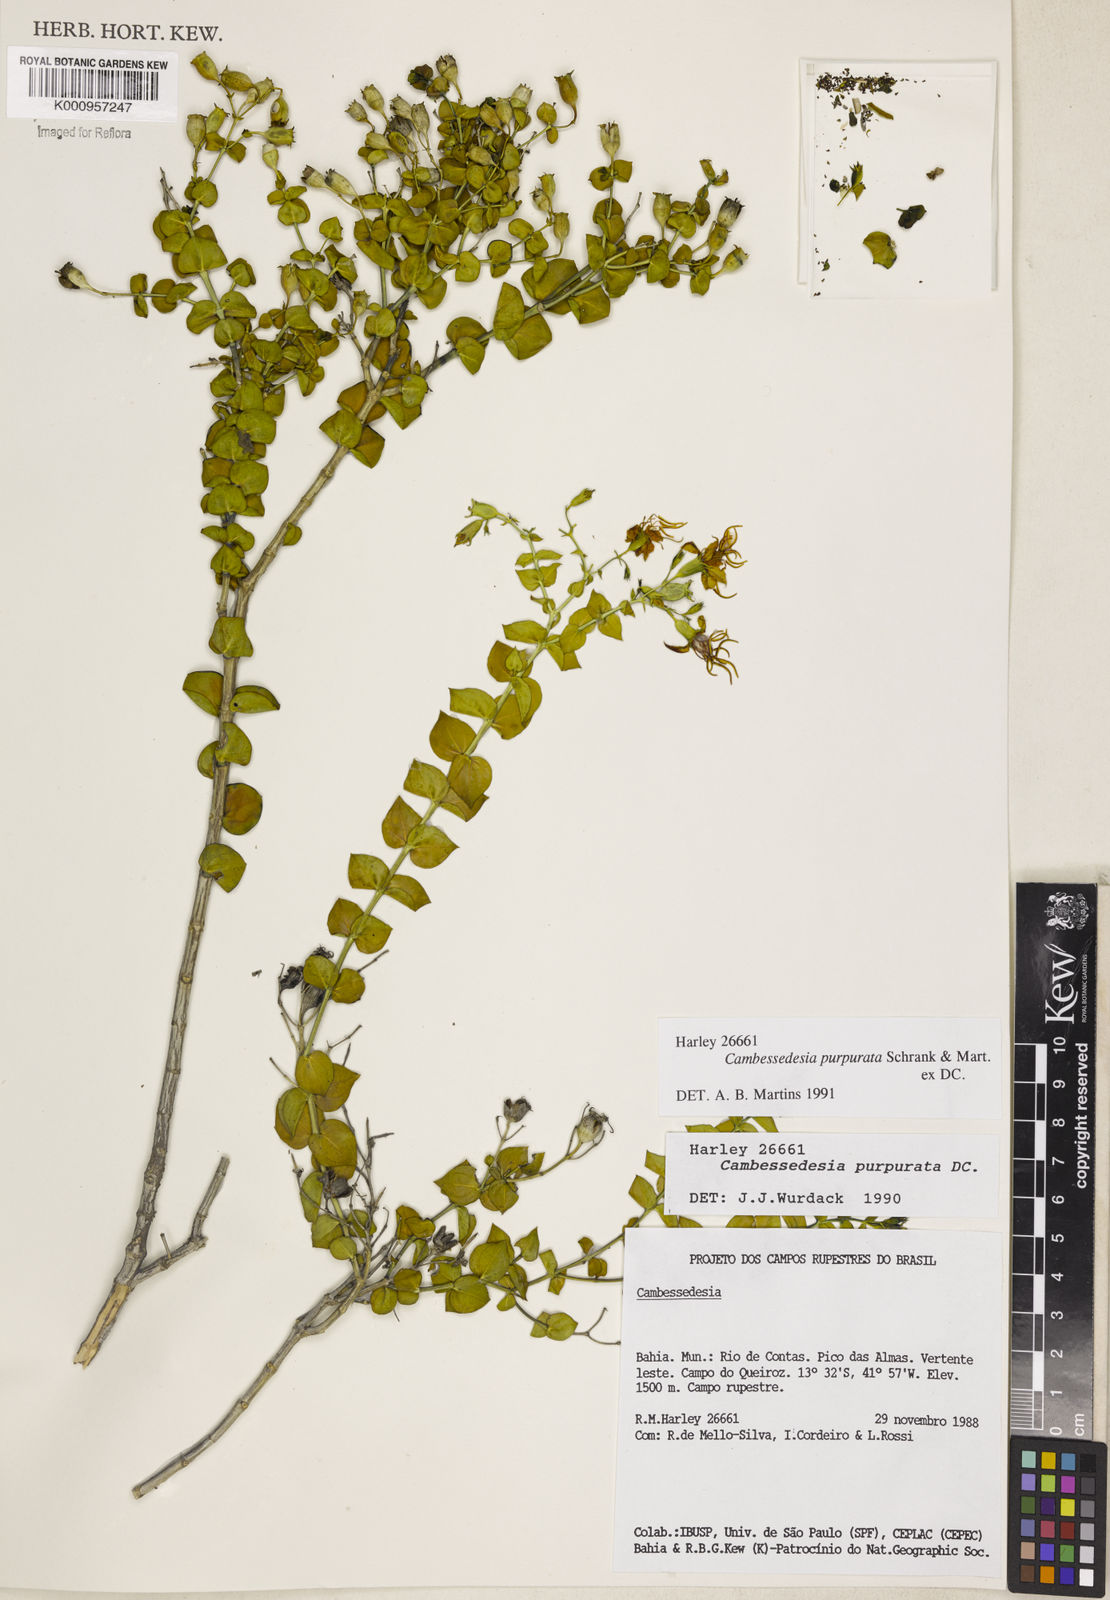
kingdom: Plantae
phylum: Tracheophyta
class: Magnoliopsida
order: Myrtales
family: Melastomataceae
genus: Cambessedesia
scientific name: Cambessedesia purpurata
